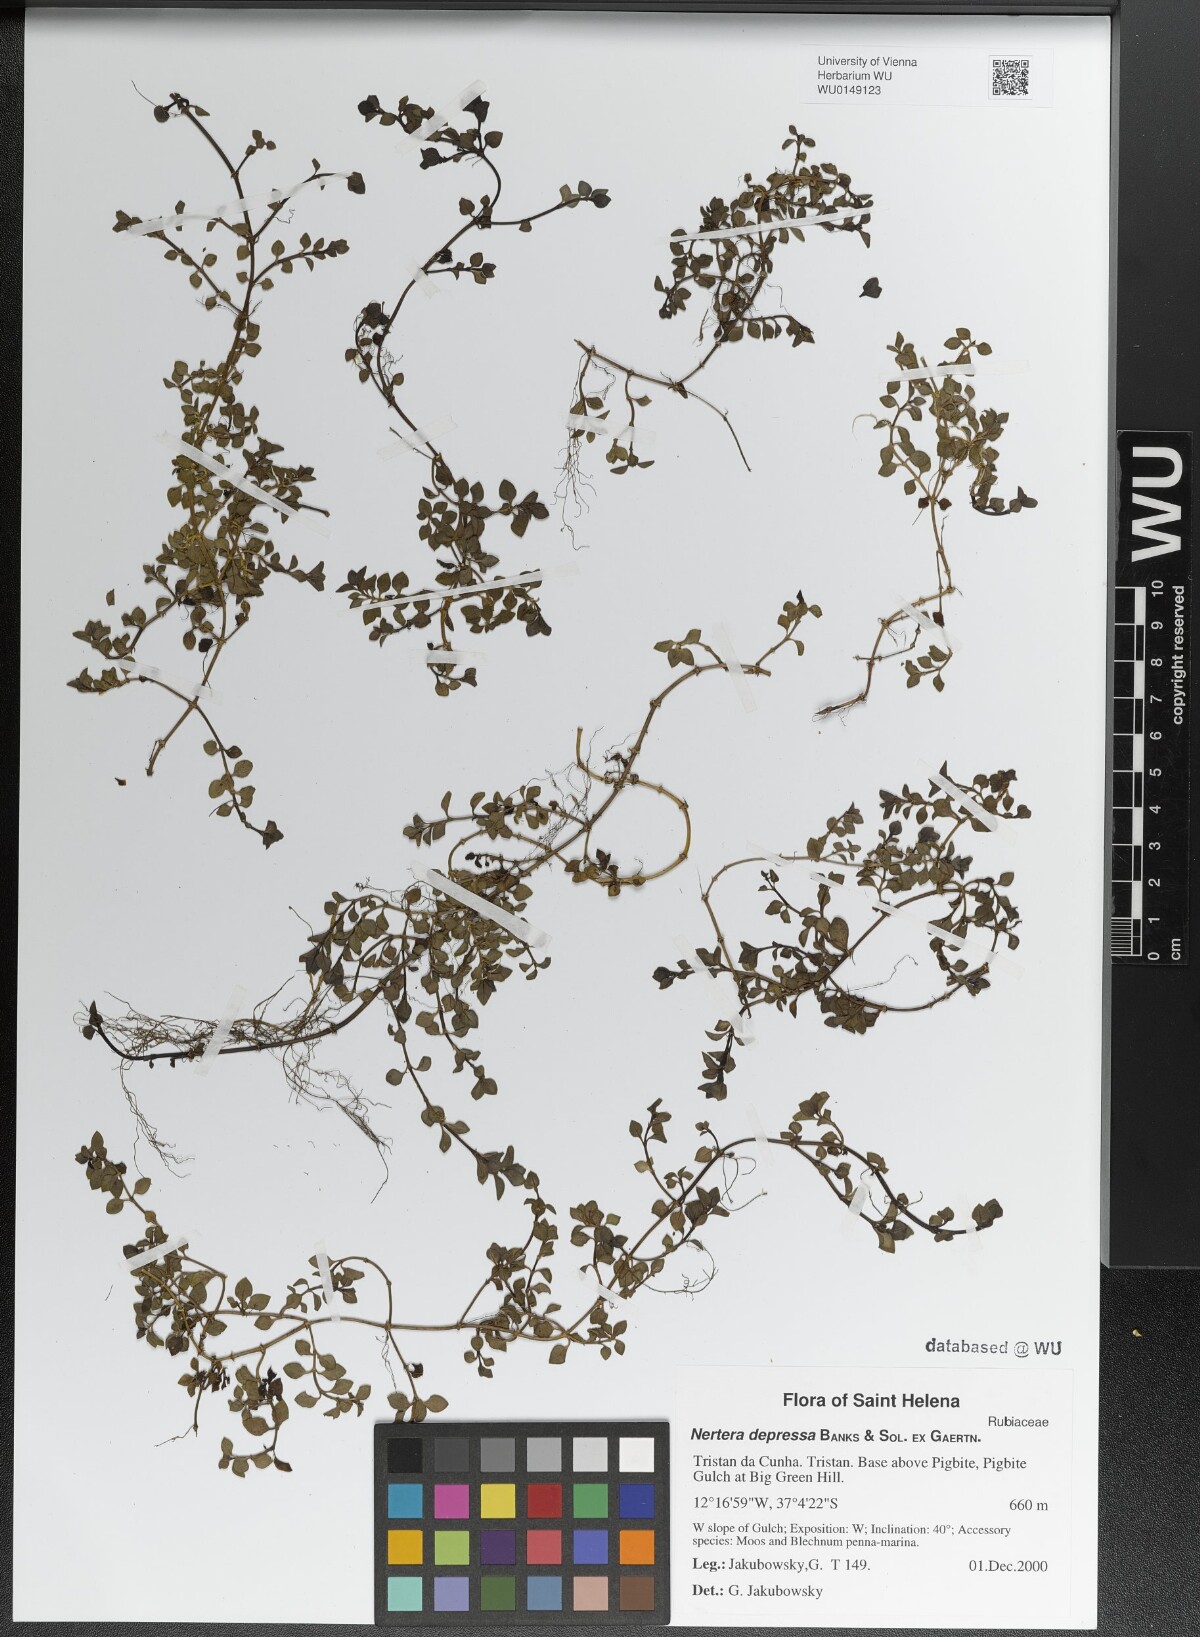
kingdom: Plantae
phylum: Tracheophyta
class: Magnoliopsida
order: Gentianales
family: Rubiaceae
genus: Nertera
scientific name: Nertera granadensis
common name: Beadplant
